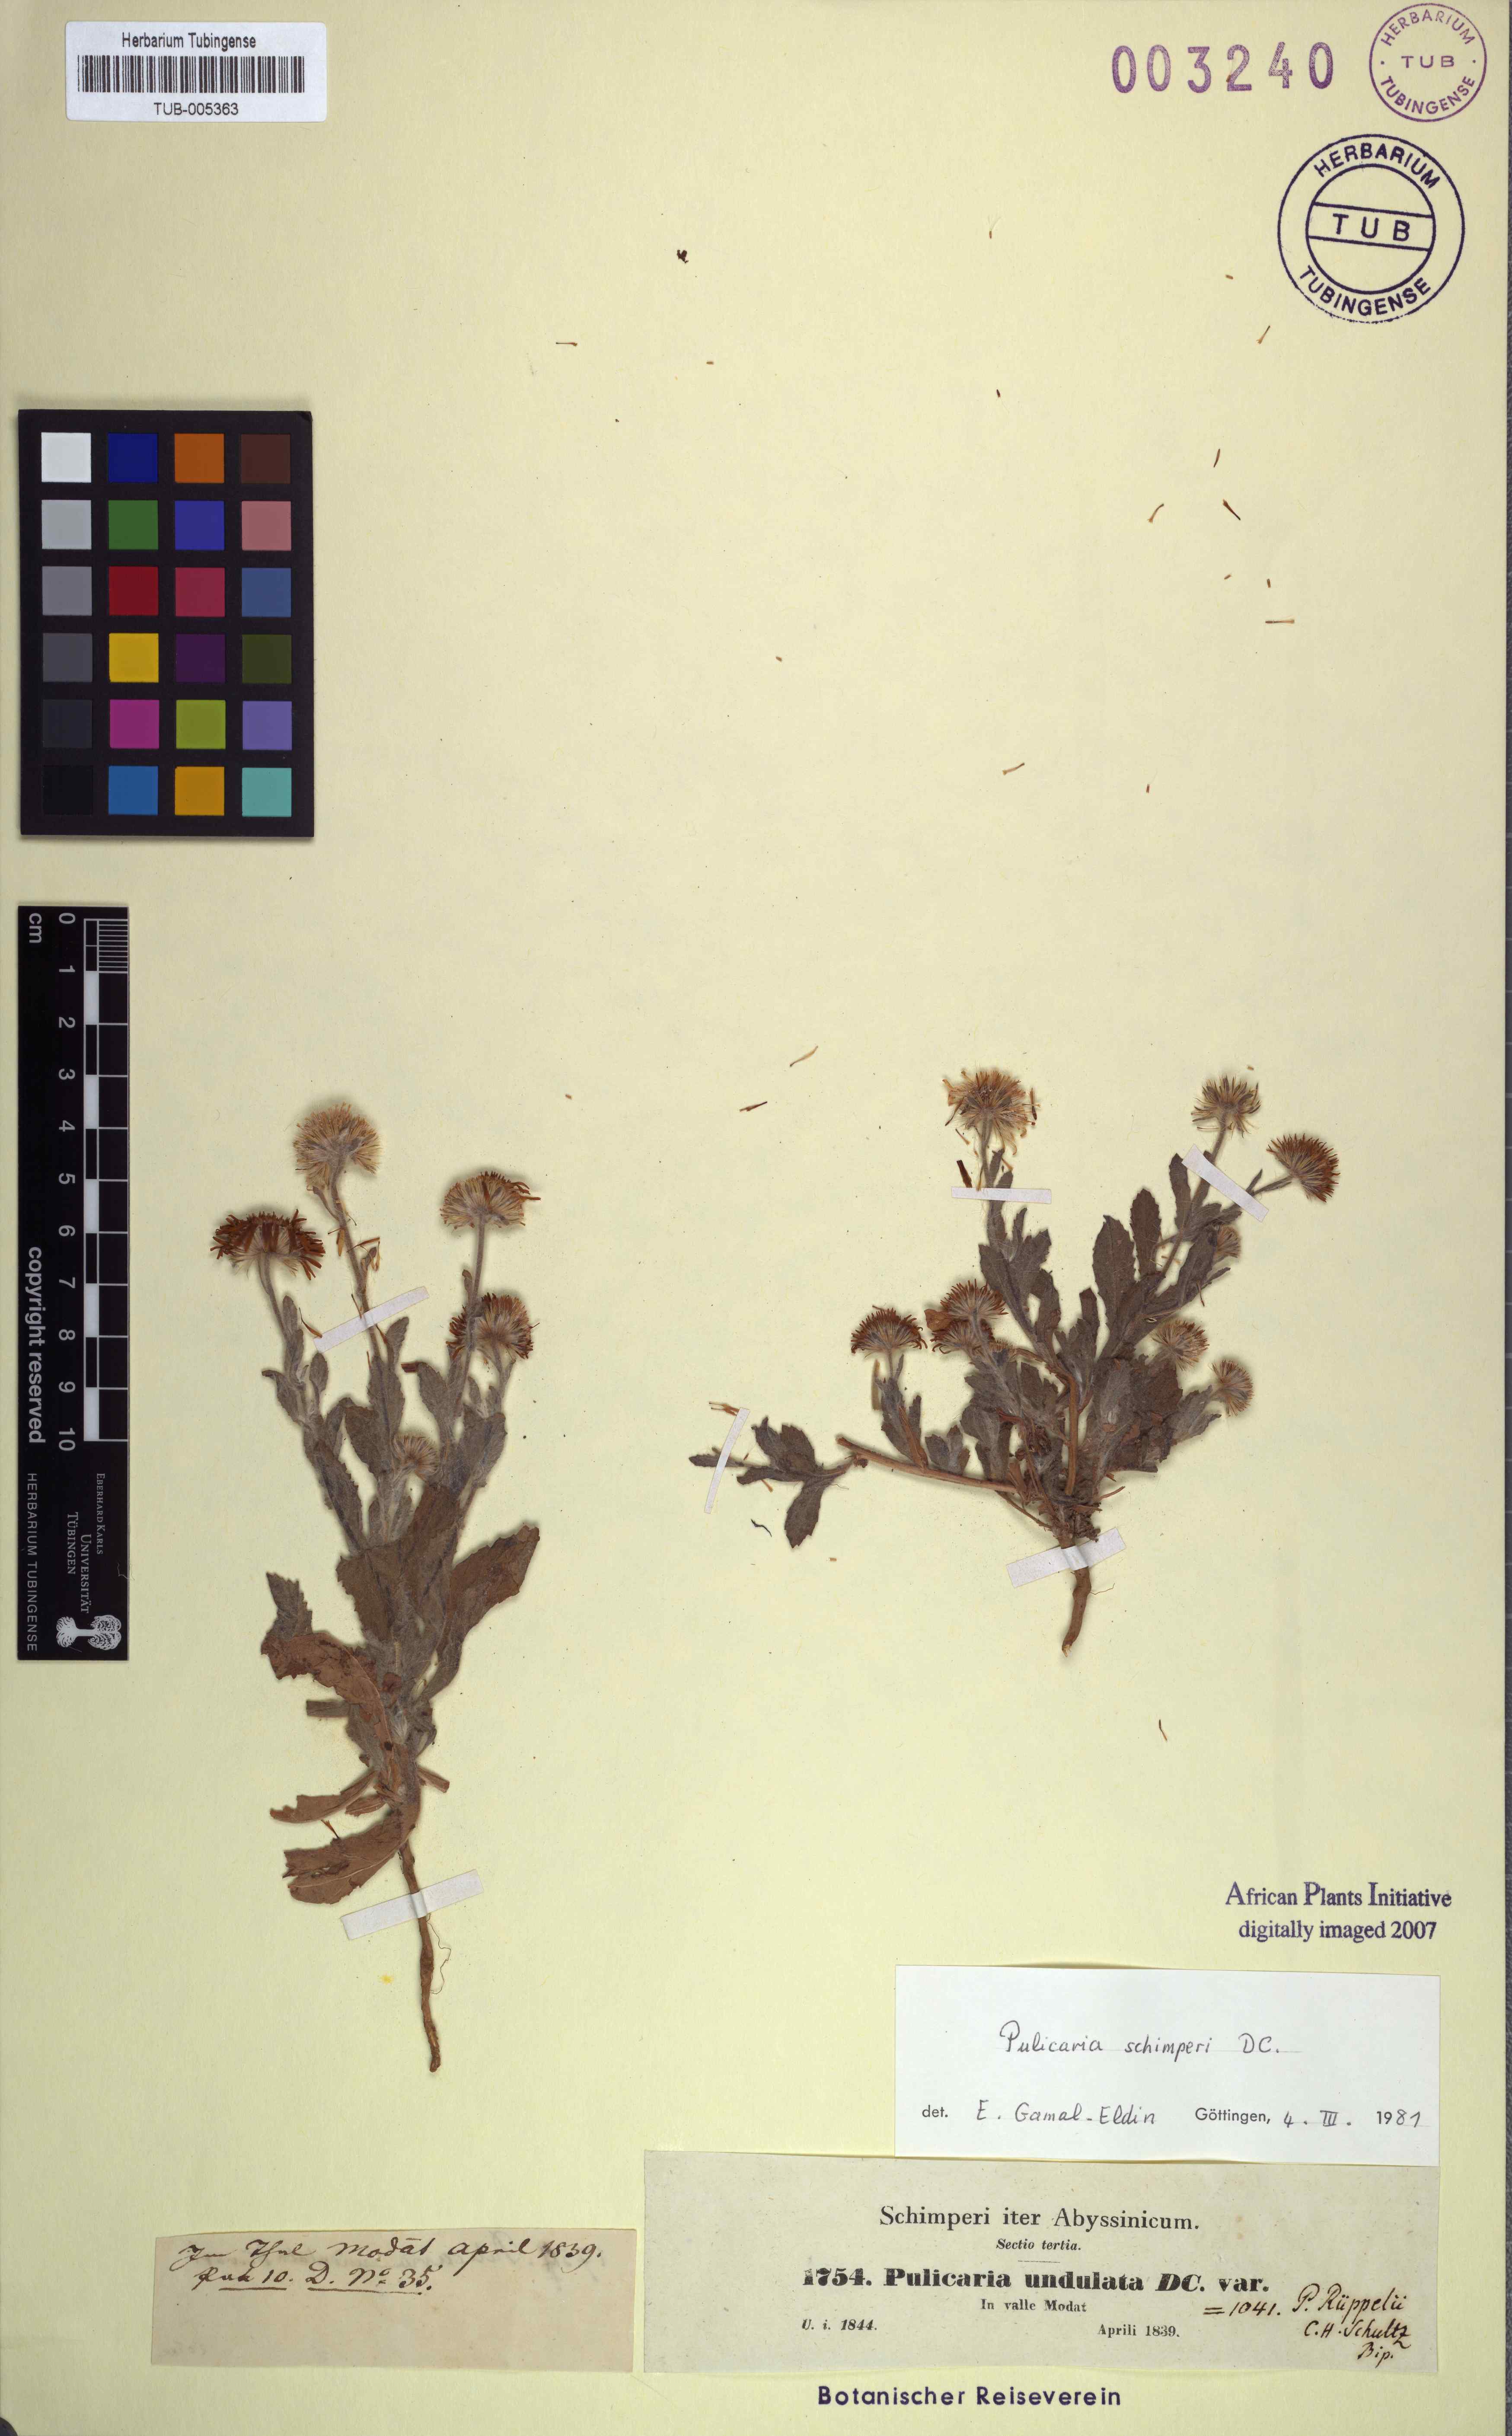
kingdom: Plantae
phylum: Tracheophyta
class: Magnoliopsida
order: Asterales
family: Asteraceae
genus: Pulicaria
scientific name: Pulicaria schimperi
